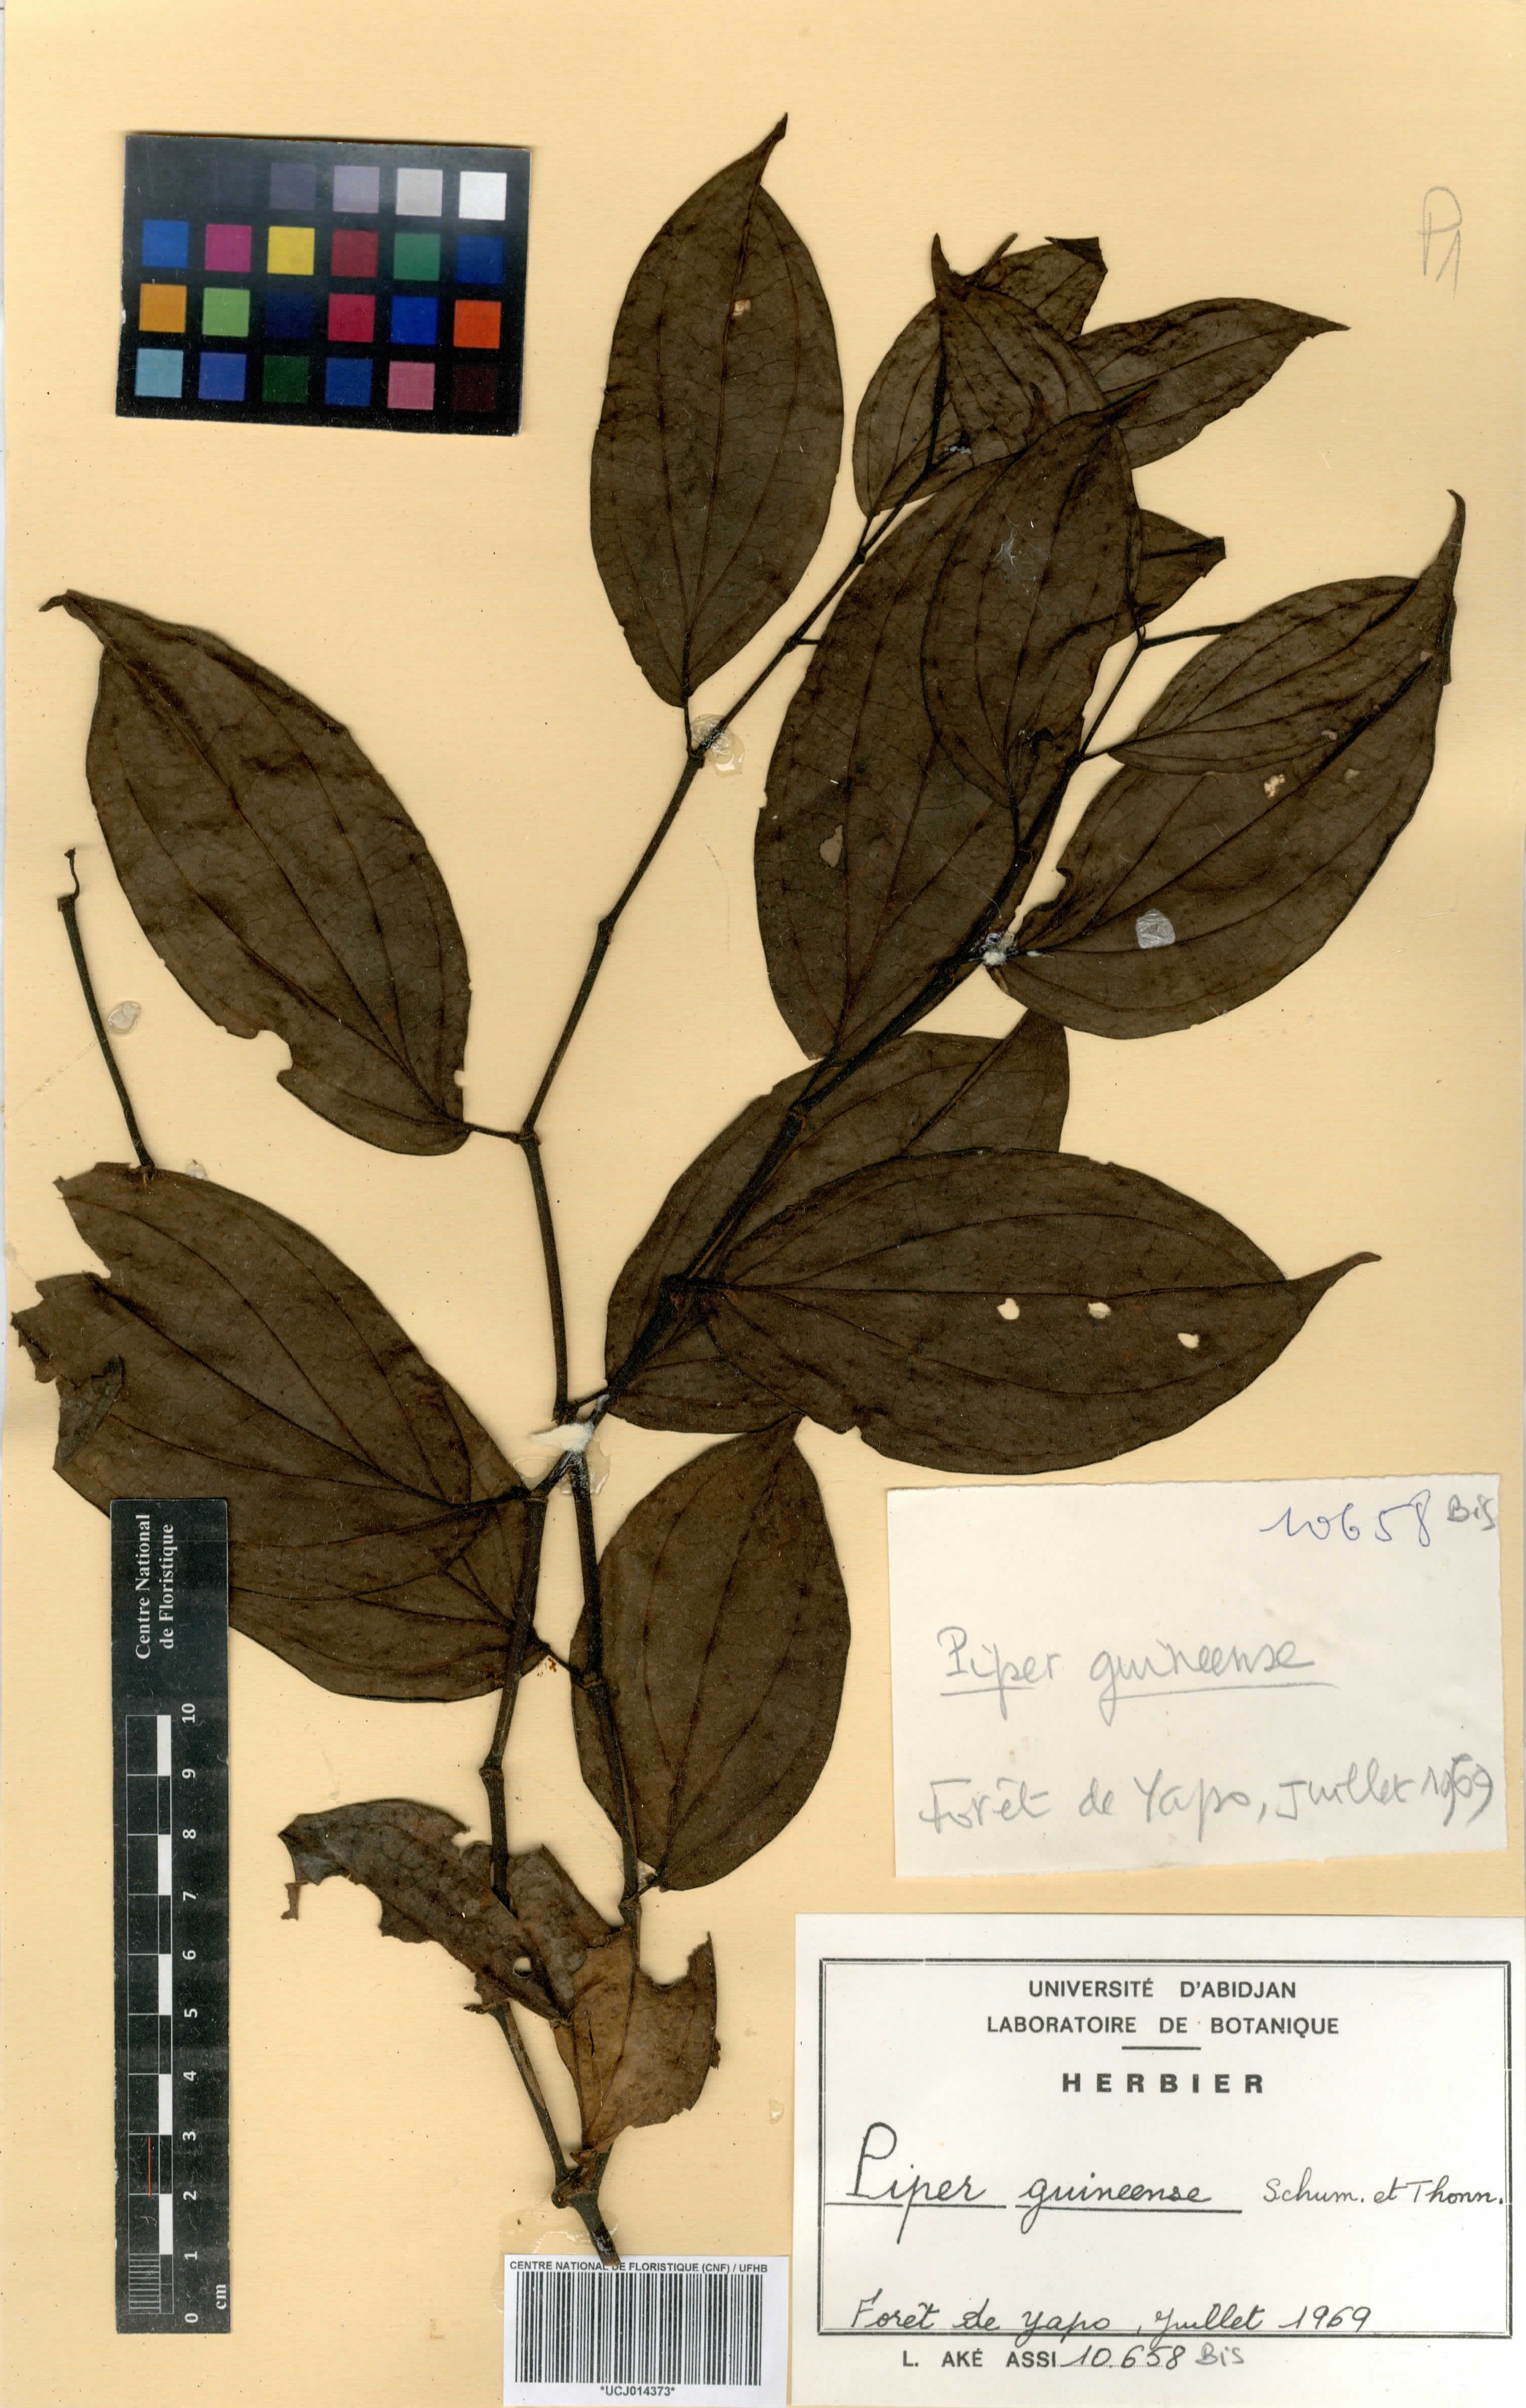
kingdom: Plantae
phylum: Tracheophyta
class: Magnoliopsida
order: Piperales
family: Piperaceae
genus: Piper
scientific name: Piper guineense
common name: Benin pepper
